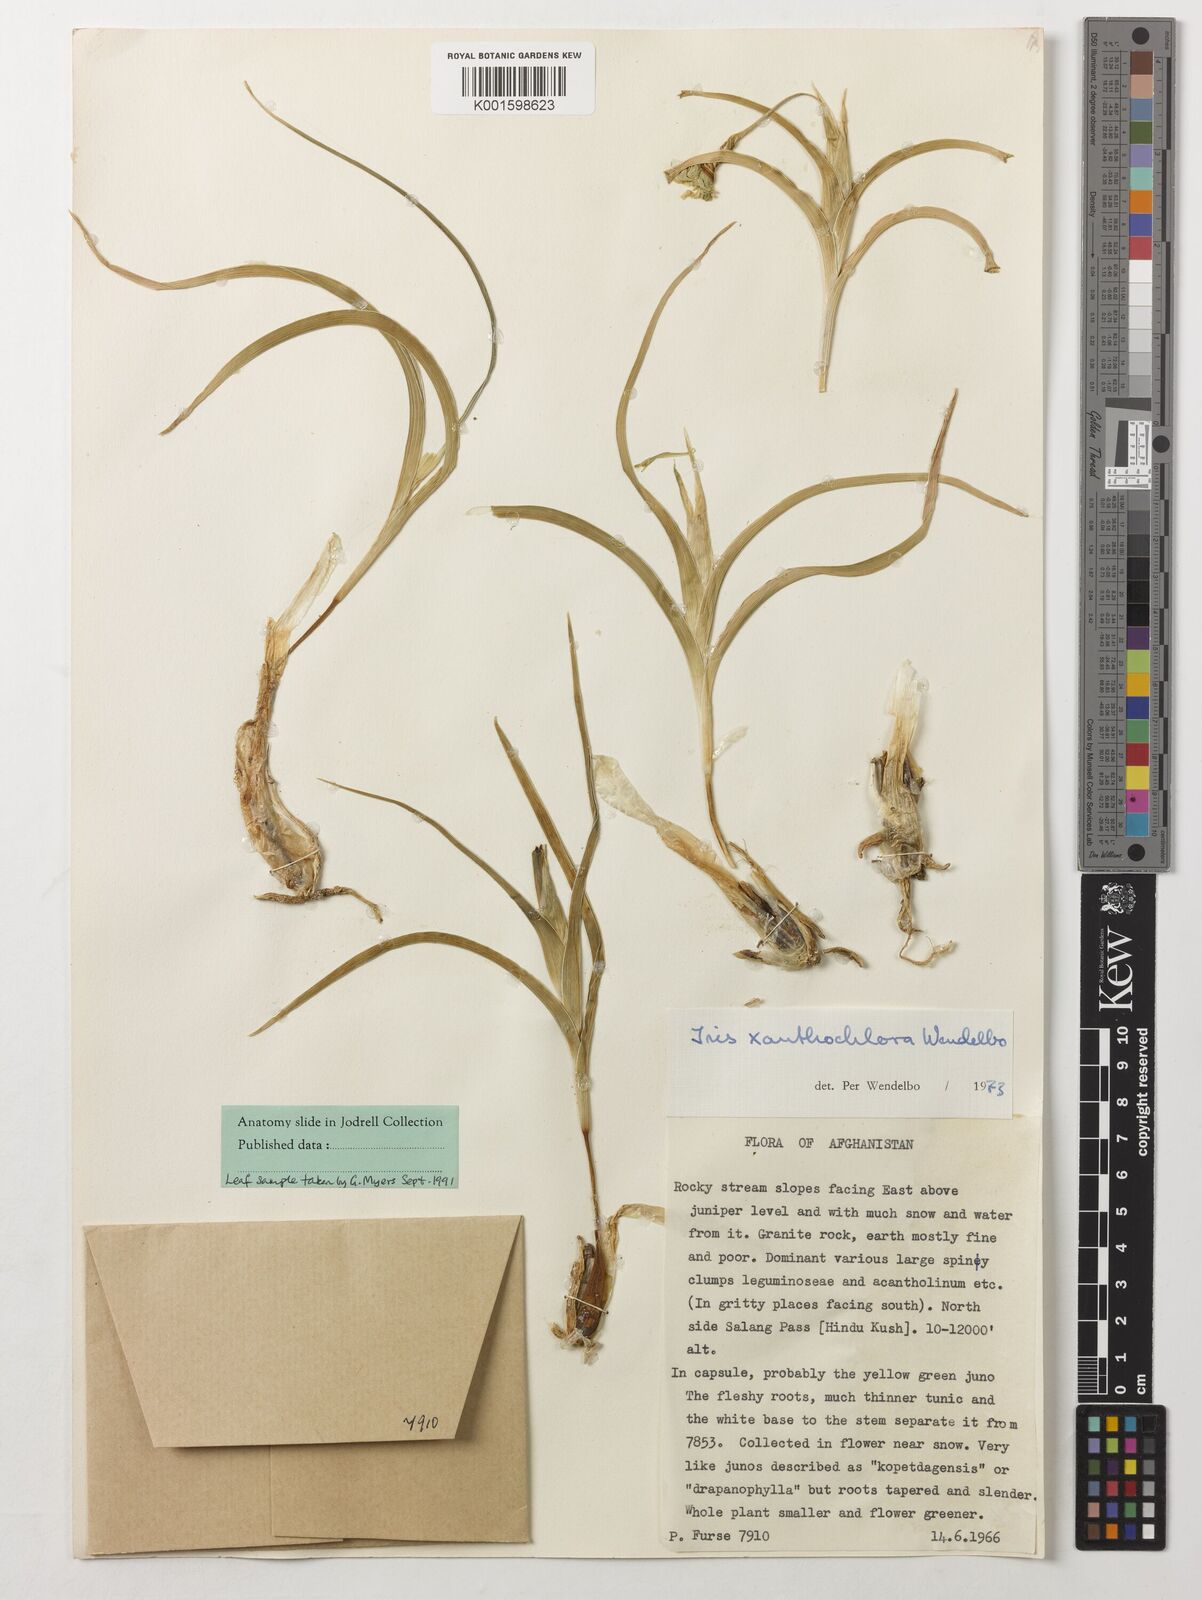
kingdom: Plantae
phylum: Tracheophyta
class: Liliopsida
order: Asparagales
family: Iridaceae
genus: Iris
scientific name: Iris xanthochlora
